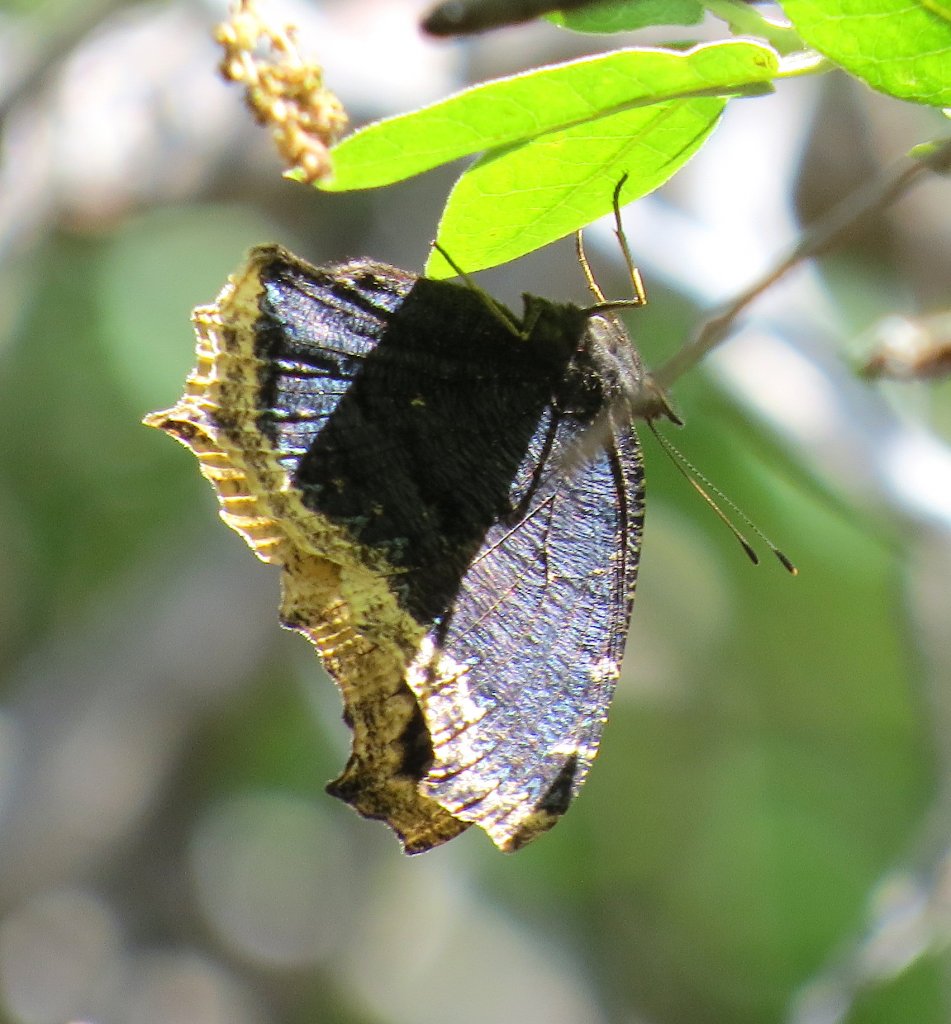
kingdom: Animalia
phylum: Arthropoda
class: Insecta
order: Lepidoptera
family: Nymphalidae
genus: Nymphalis
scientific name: Nymphalis antiopa
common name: Mourning Cloak
